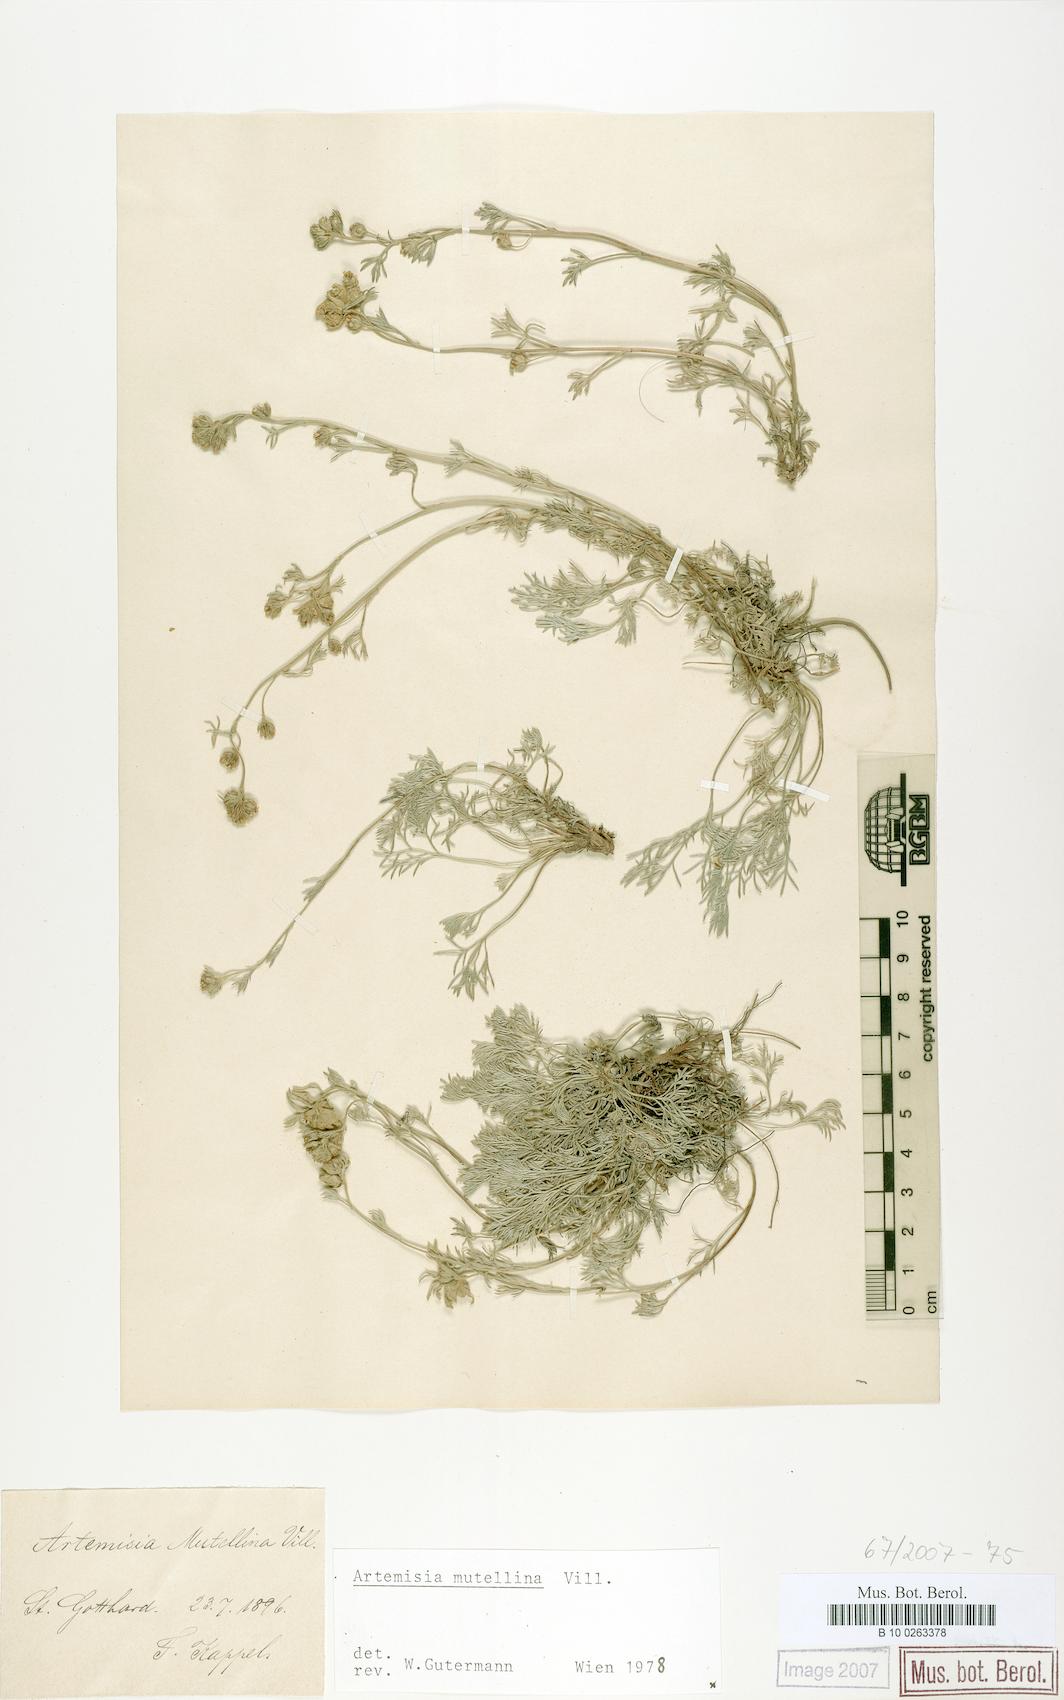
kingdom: Plantae
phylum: Tracheophyta
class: Magnoliopsida
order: Asterales
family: Asteraceae
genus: Artemisia
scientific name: Artemisia mutellina
